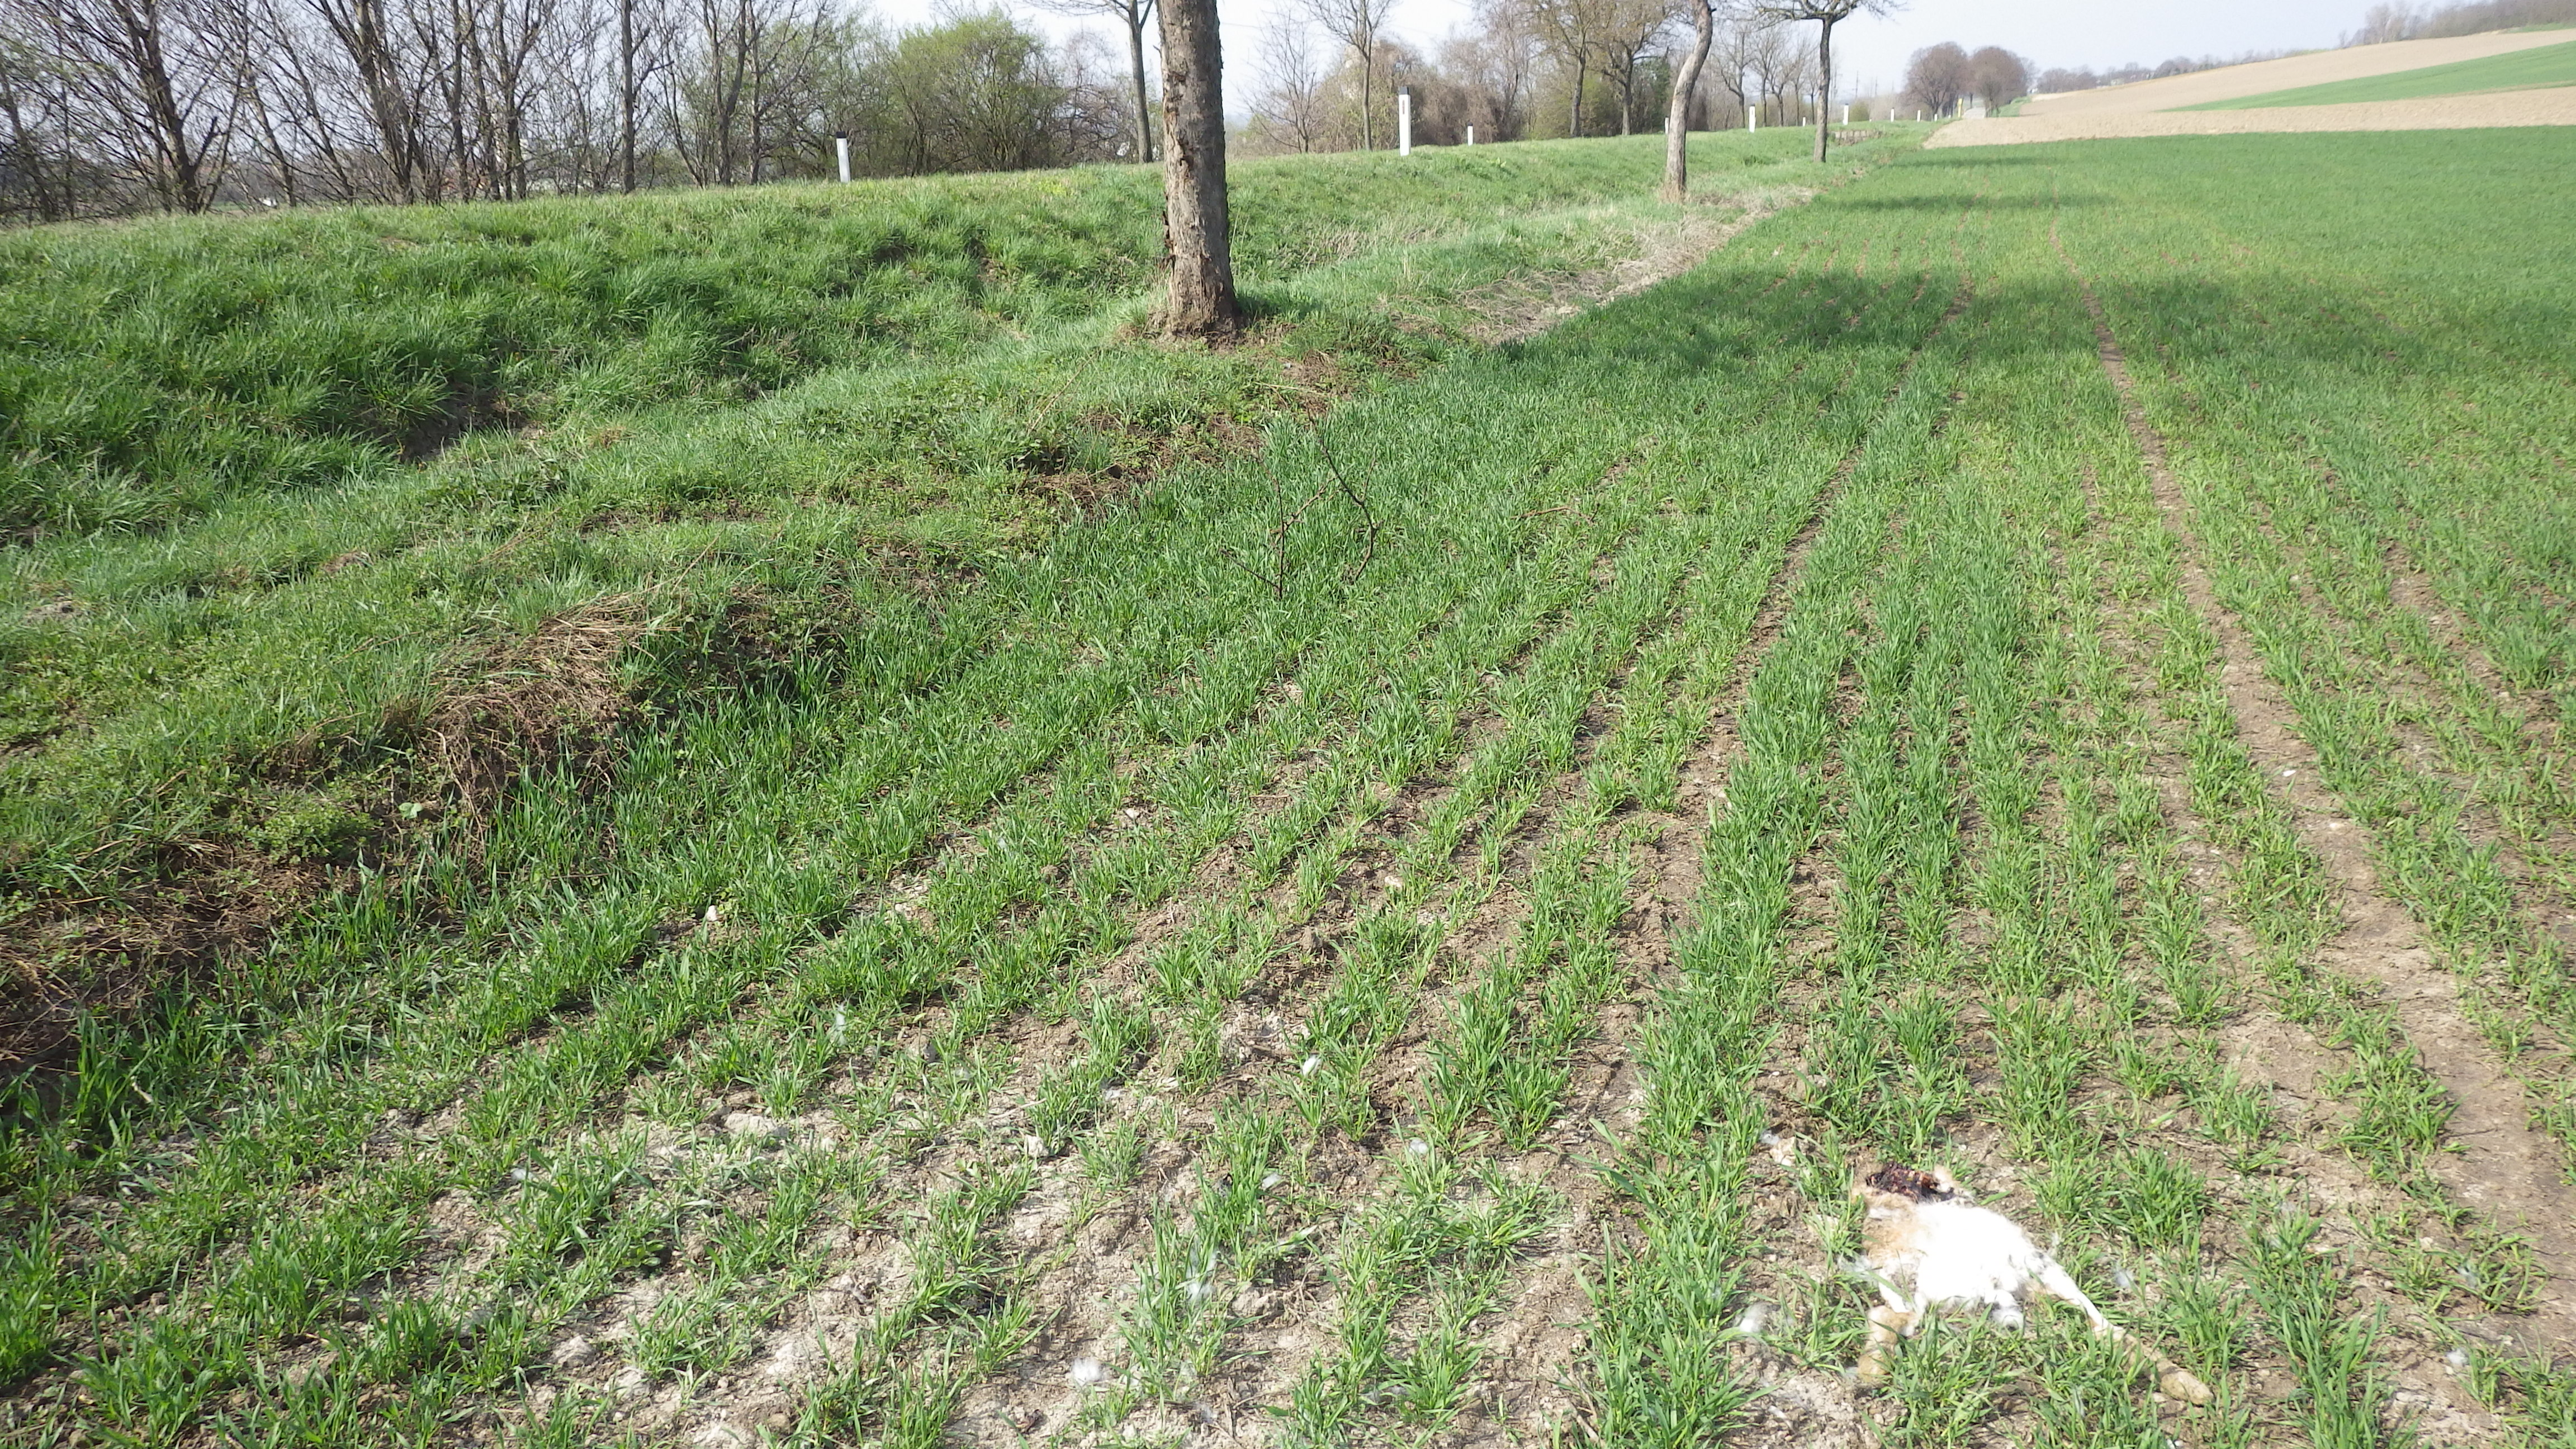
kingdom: Animalia
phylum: Chordata
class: Mammalia
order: Lagomorpha
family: Leporidae
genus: Lepus
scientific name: Lepus europaeus
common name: European hare
